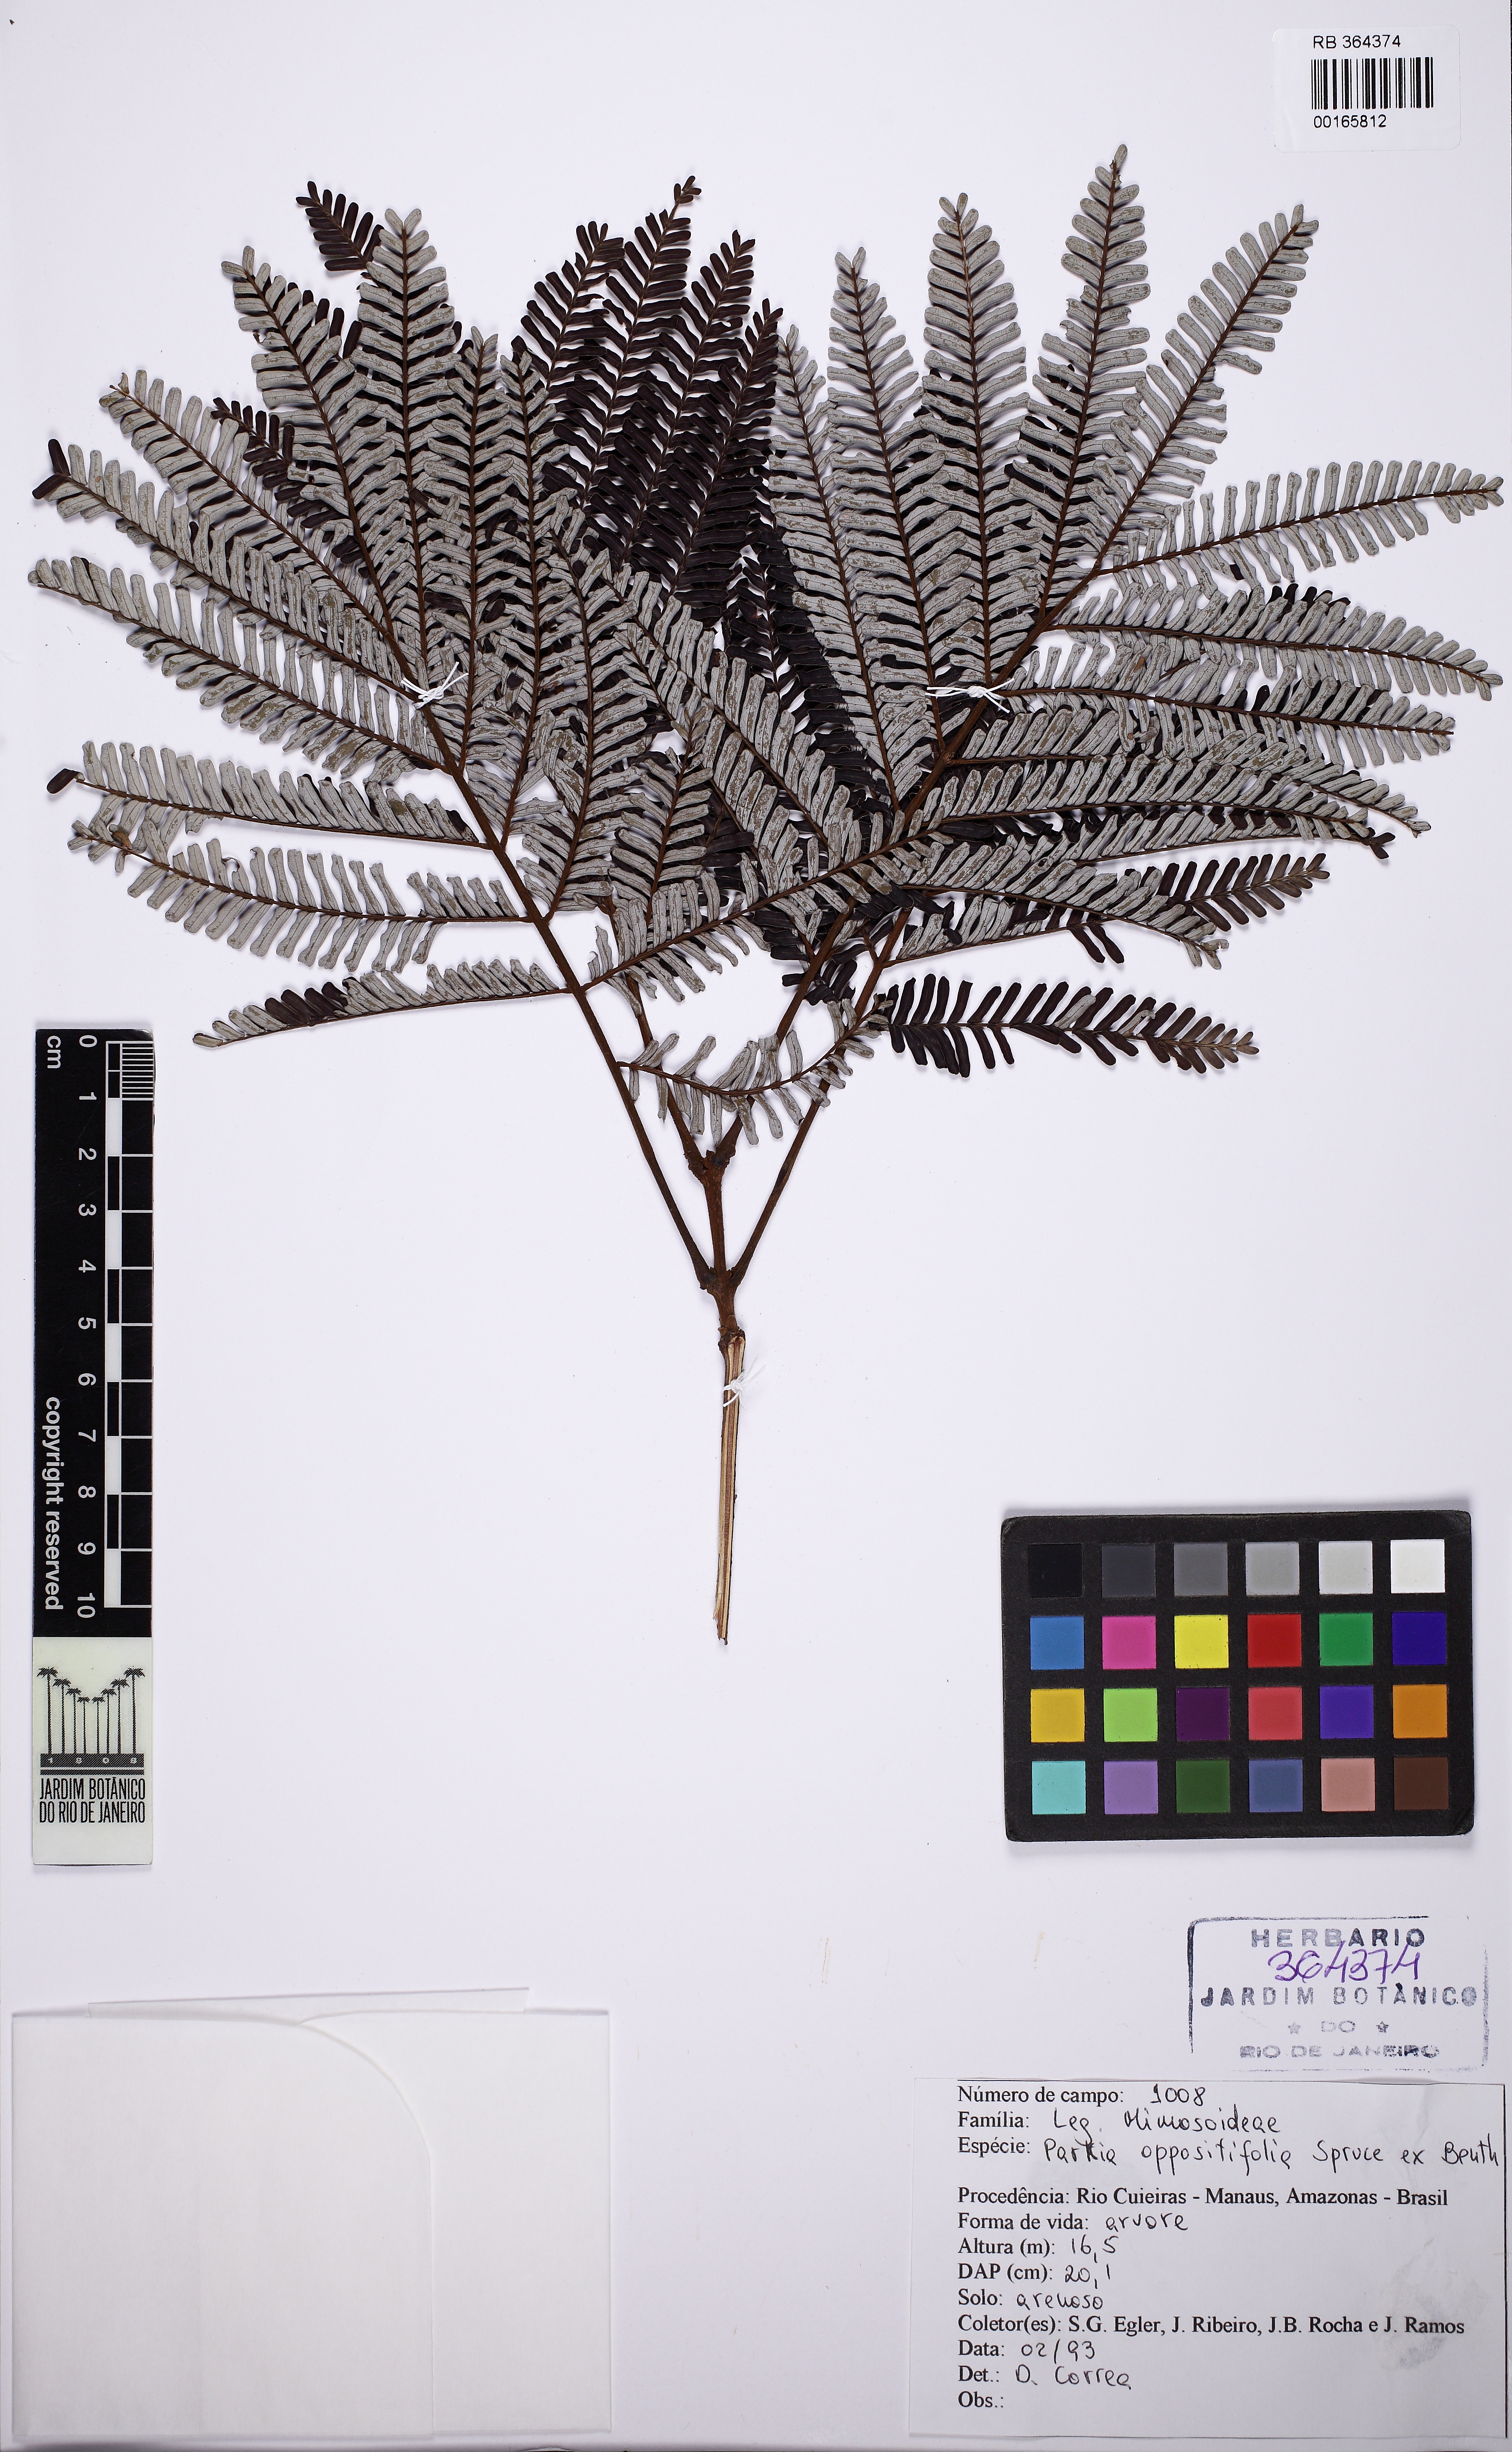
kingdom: Plantae
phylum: Tracheophyta
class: Magnoliopsida
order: Fabales
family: Fabaceae
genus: Parkia
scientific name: Parkia nitida
